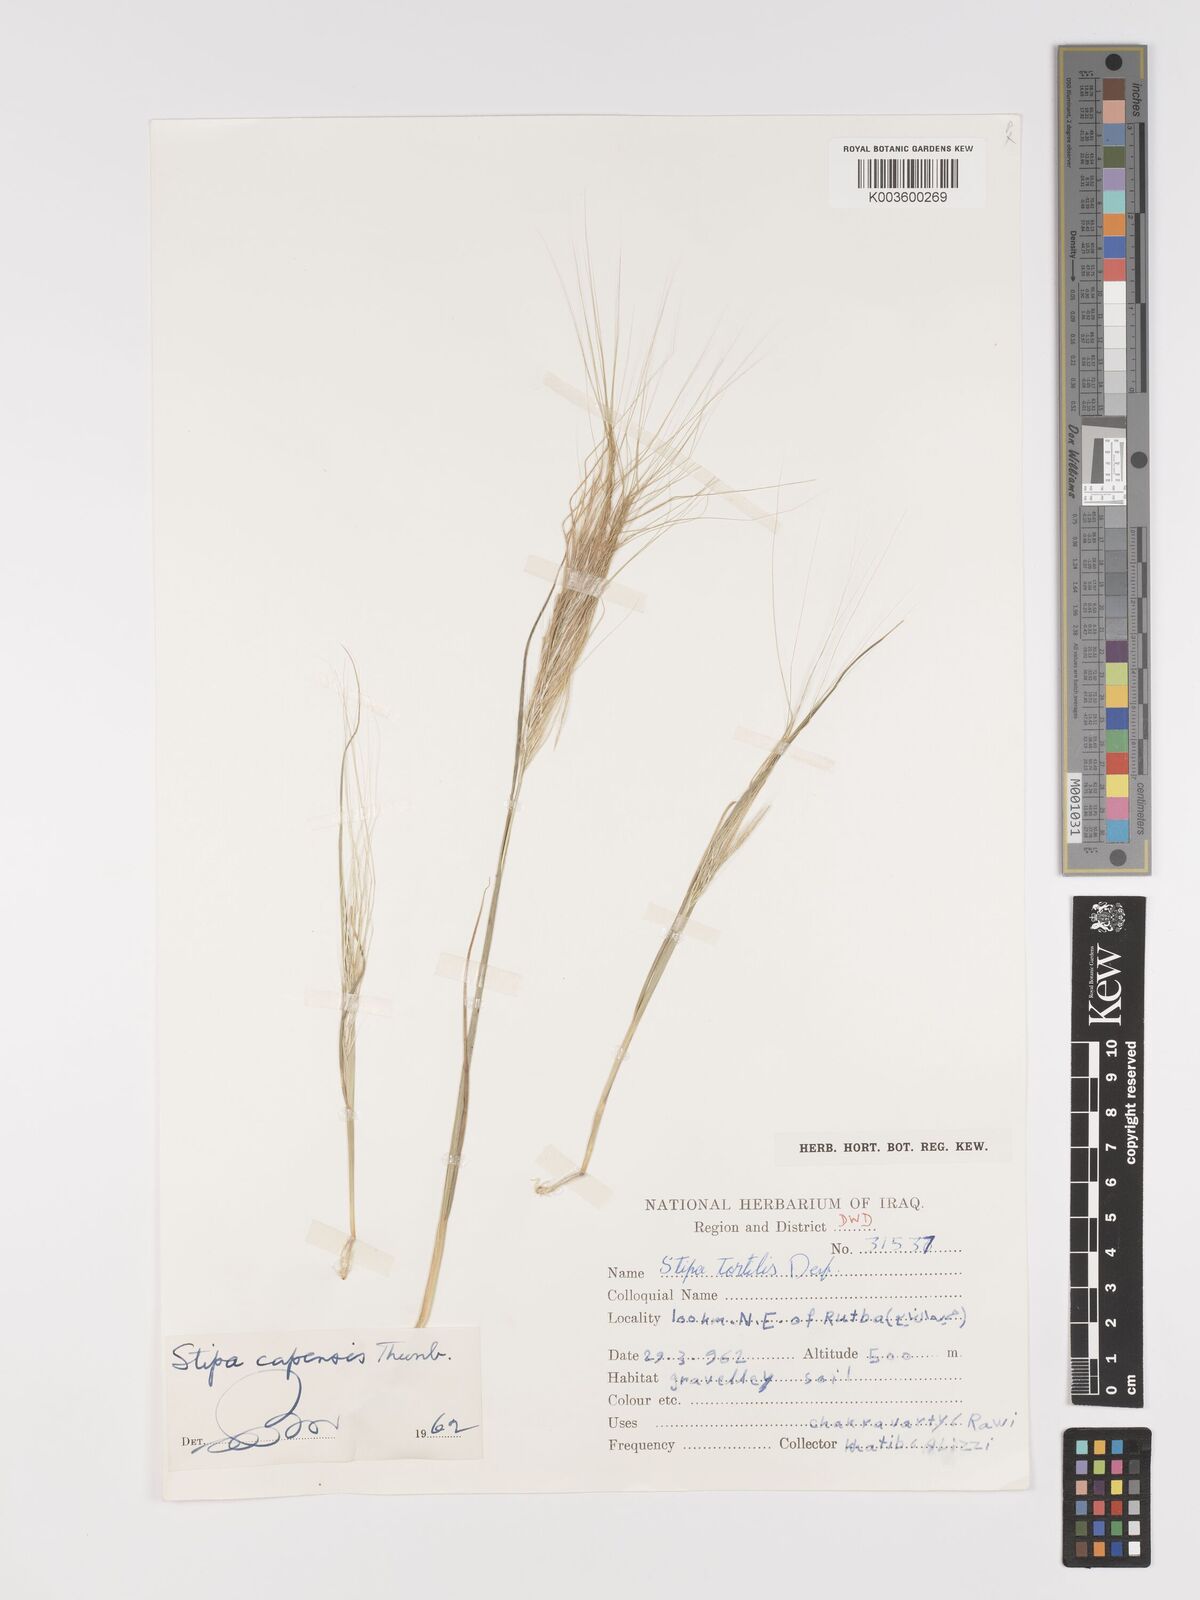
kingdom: Plantae
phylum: Tracheophyta
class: Liliopsida
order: Poales
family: Poaceae
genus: Stipellula
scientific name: Stipellula capensis
